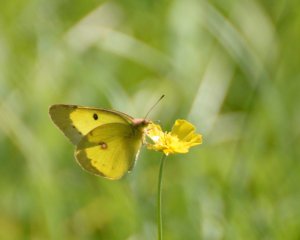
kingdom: Animalia
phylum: Arthropoda
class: Insecta
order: Lepidoptera
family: Pieridae
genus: Colias
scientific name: Colias eurytheme
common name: Orange Sulphur
